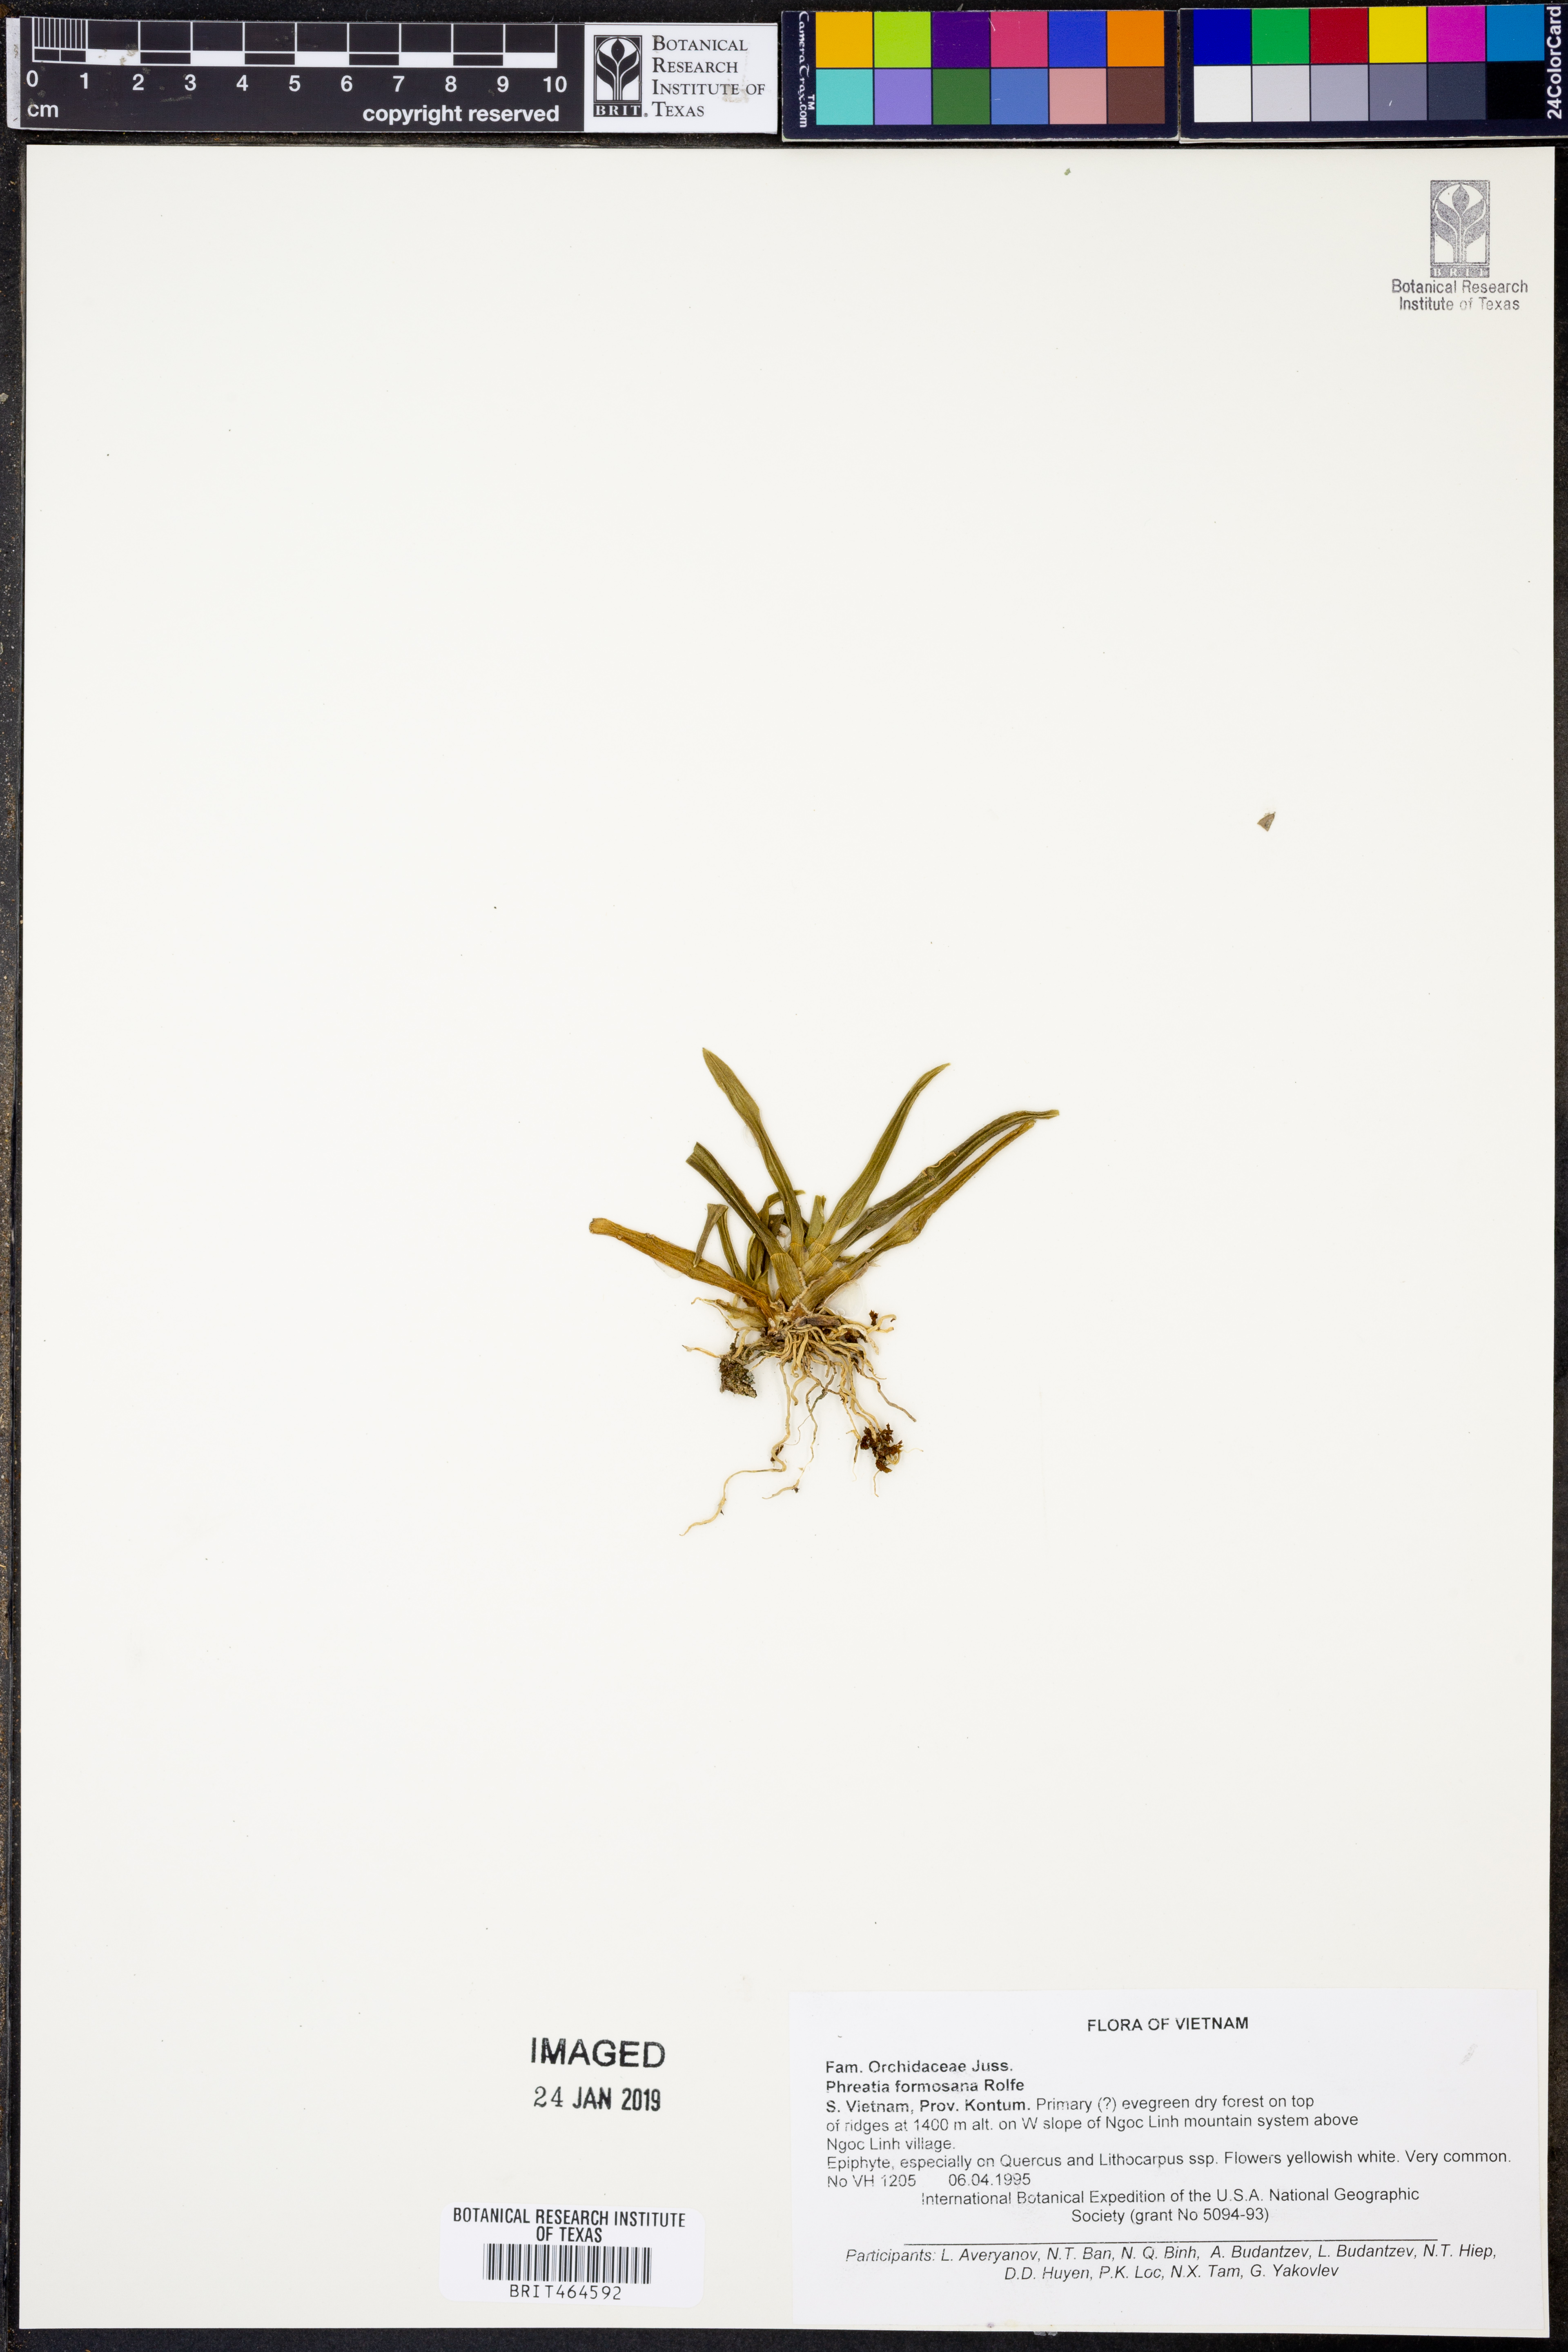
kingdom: Plantae
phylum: Tracheophyta
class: Liliopsida
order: Asparagales
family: Orchidaceae
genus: Phreatia
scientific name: Phreatia formosana
